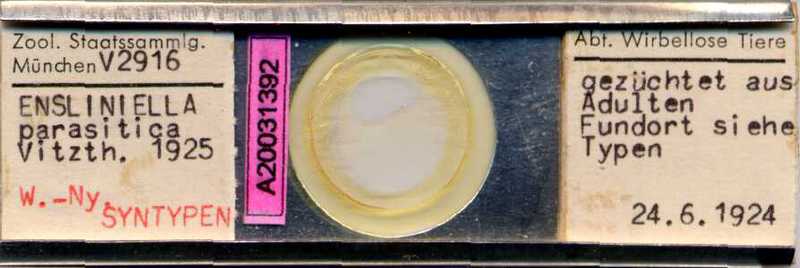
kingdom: Animalia
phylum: Arthropoda
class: Arachnida
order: Sarcoptiformes
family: Winterschmidtiidae
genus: Ensliniella
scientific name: Ensliniella parasitica
